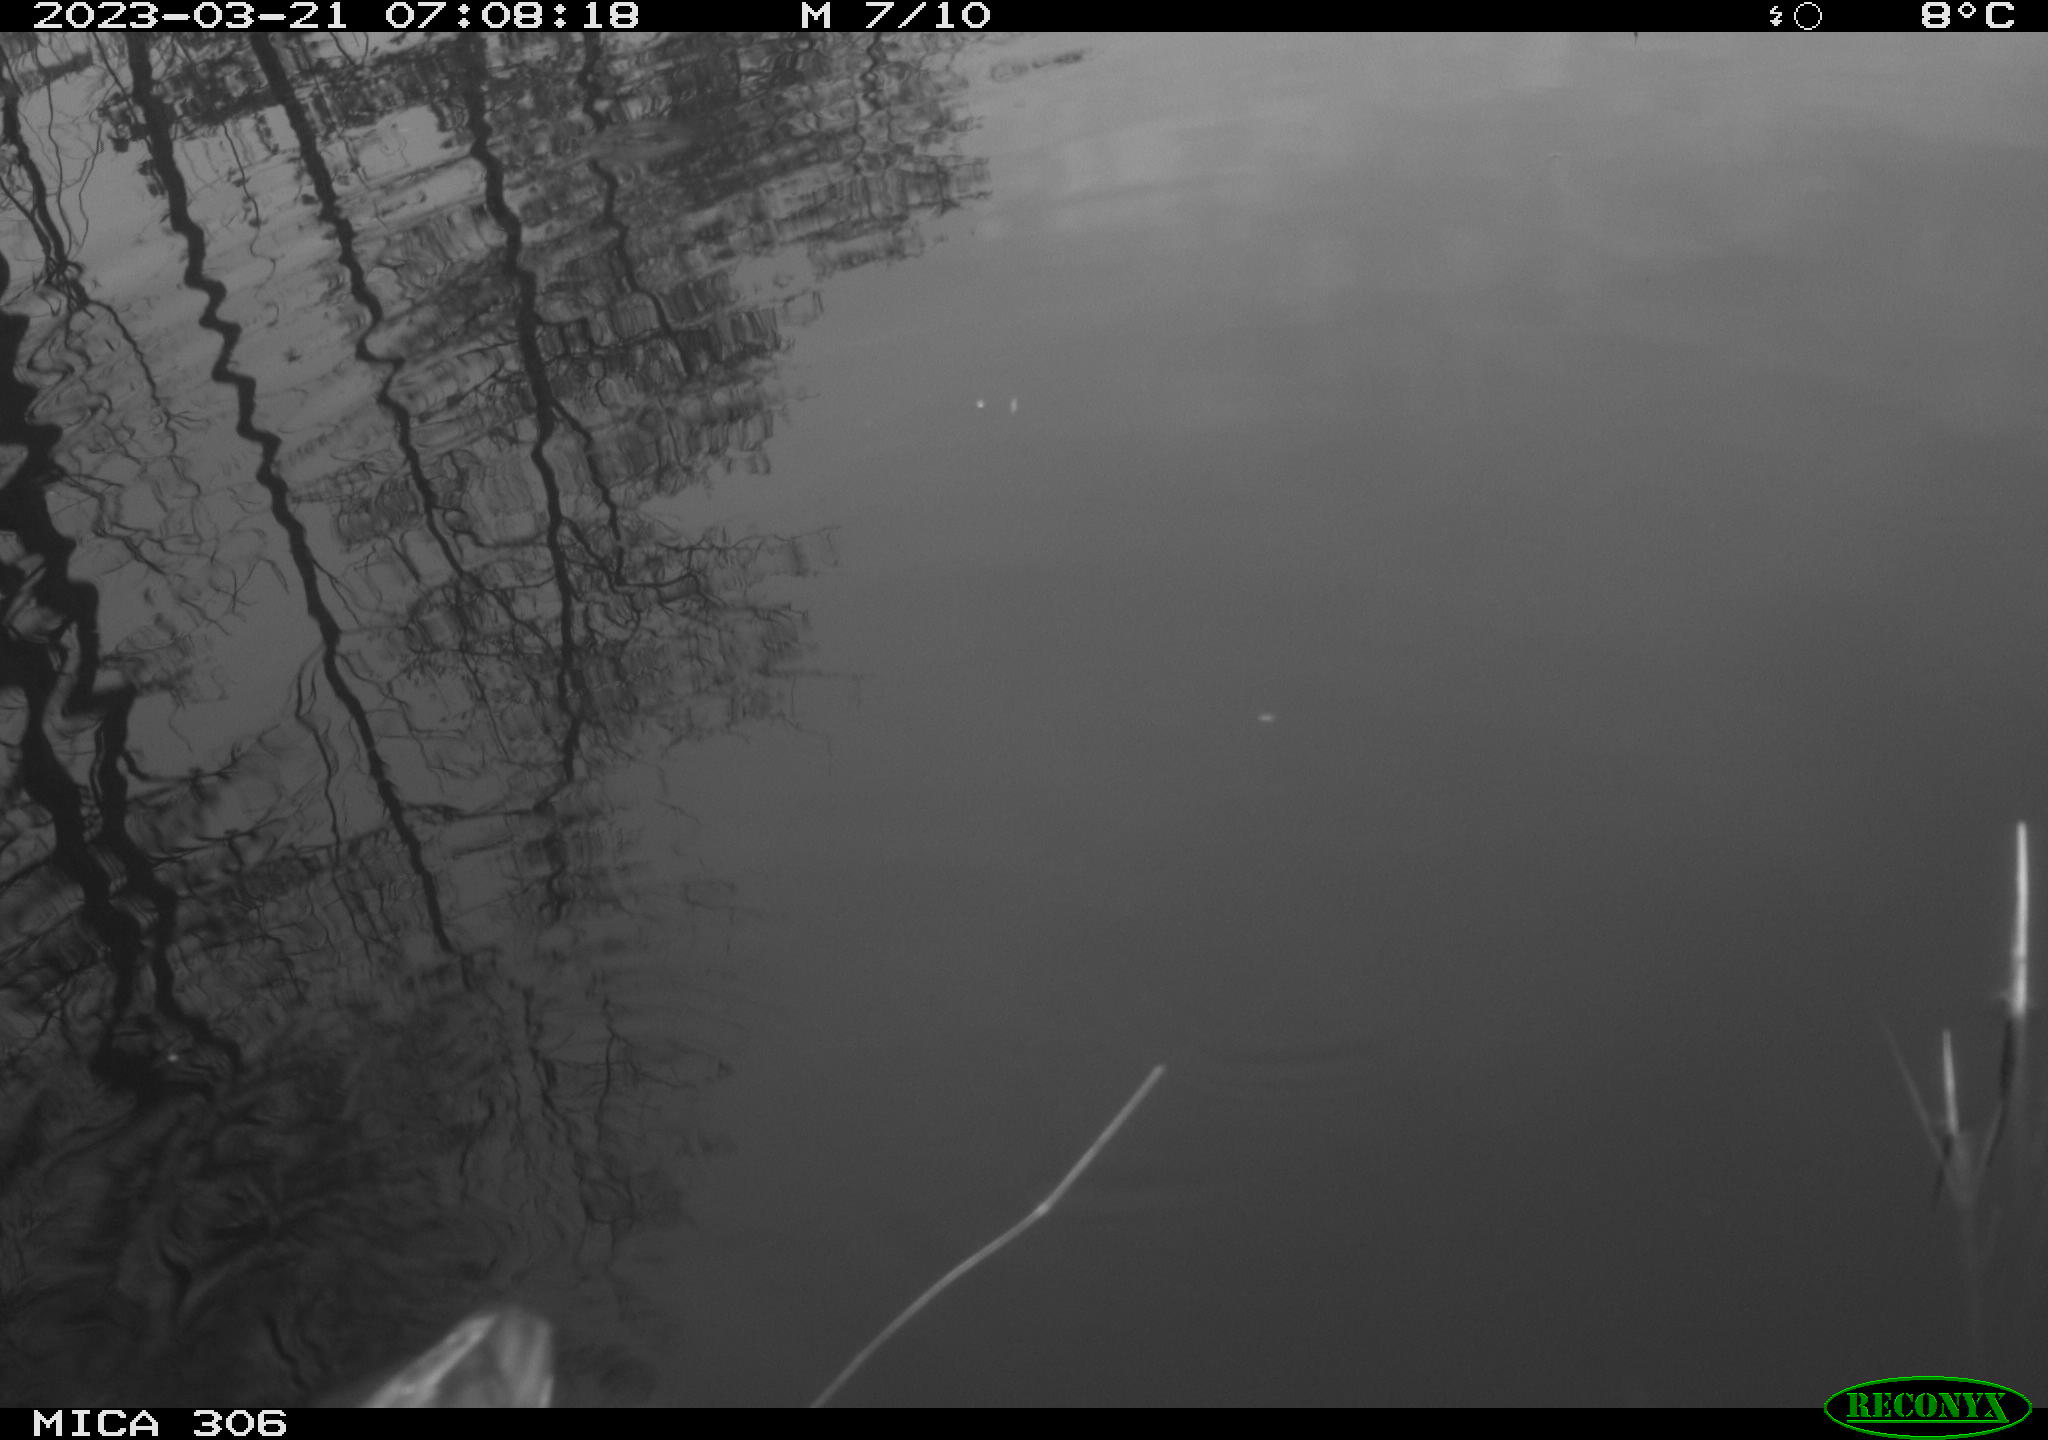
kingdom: Animalia
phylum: Chordata
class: Aves
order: Gruiformes
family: Rallidae
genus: Gallinula
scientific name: Gallinula chloropus
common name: Common moorhen
